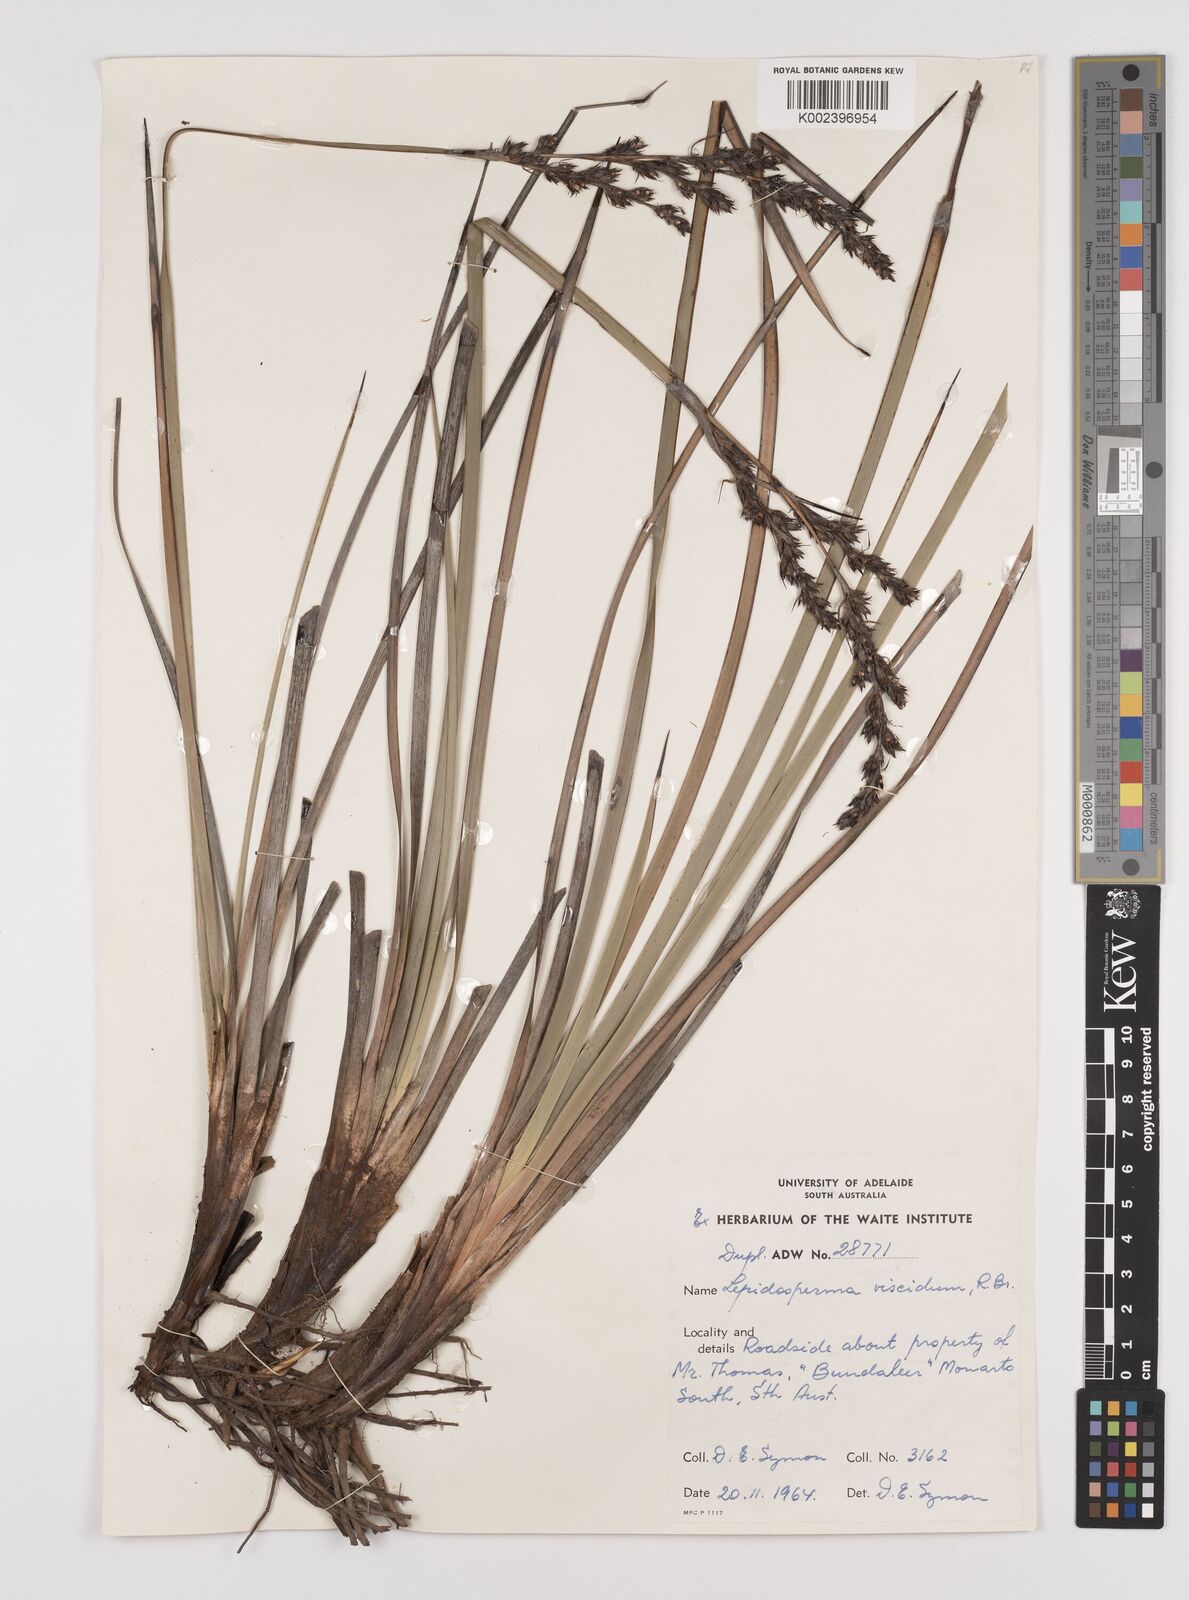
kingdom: Plantae
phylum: Tracheophyta
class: Liliopsida
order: Poales
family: Cyperaceae
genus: Lepidosperma
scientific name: Lepidosperma viscidum
